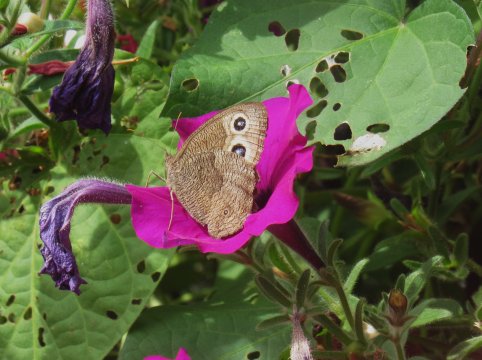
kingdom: Animalia
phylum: Arthropoda
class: Insecta
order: Lepidoptera
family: Nymphalidae
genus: Cercyonis
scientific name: Cercyonis pegala
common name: Common Wood-Nymph
